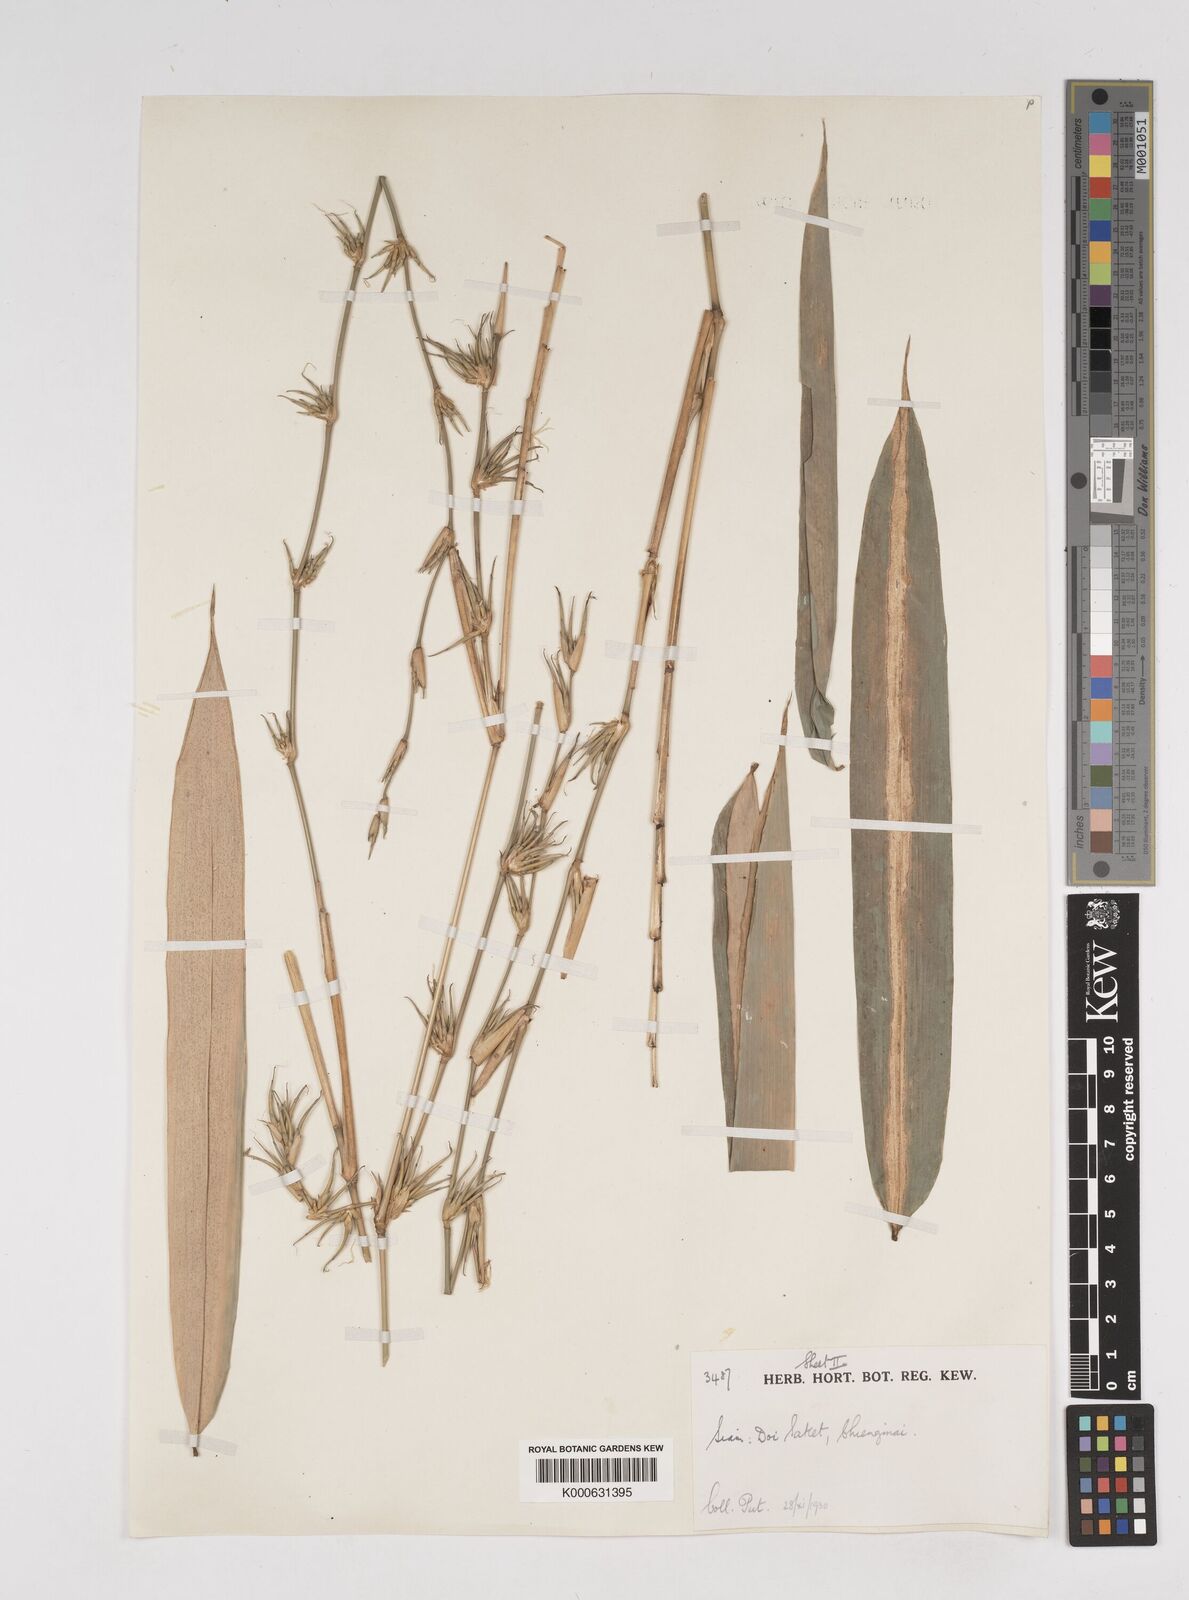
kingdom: Plantae
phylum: Tracheophyta
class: Liliopsida
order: Poales
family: Poaceae
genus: Dendrocalamus
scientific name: Dendrocalamus
